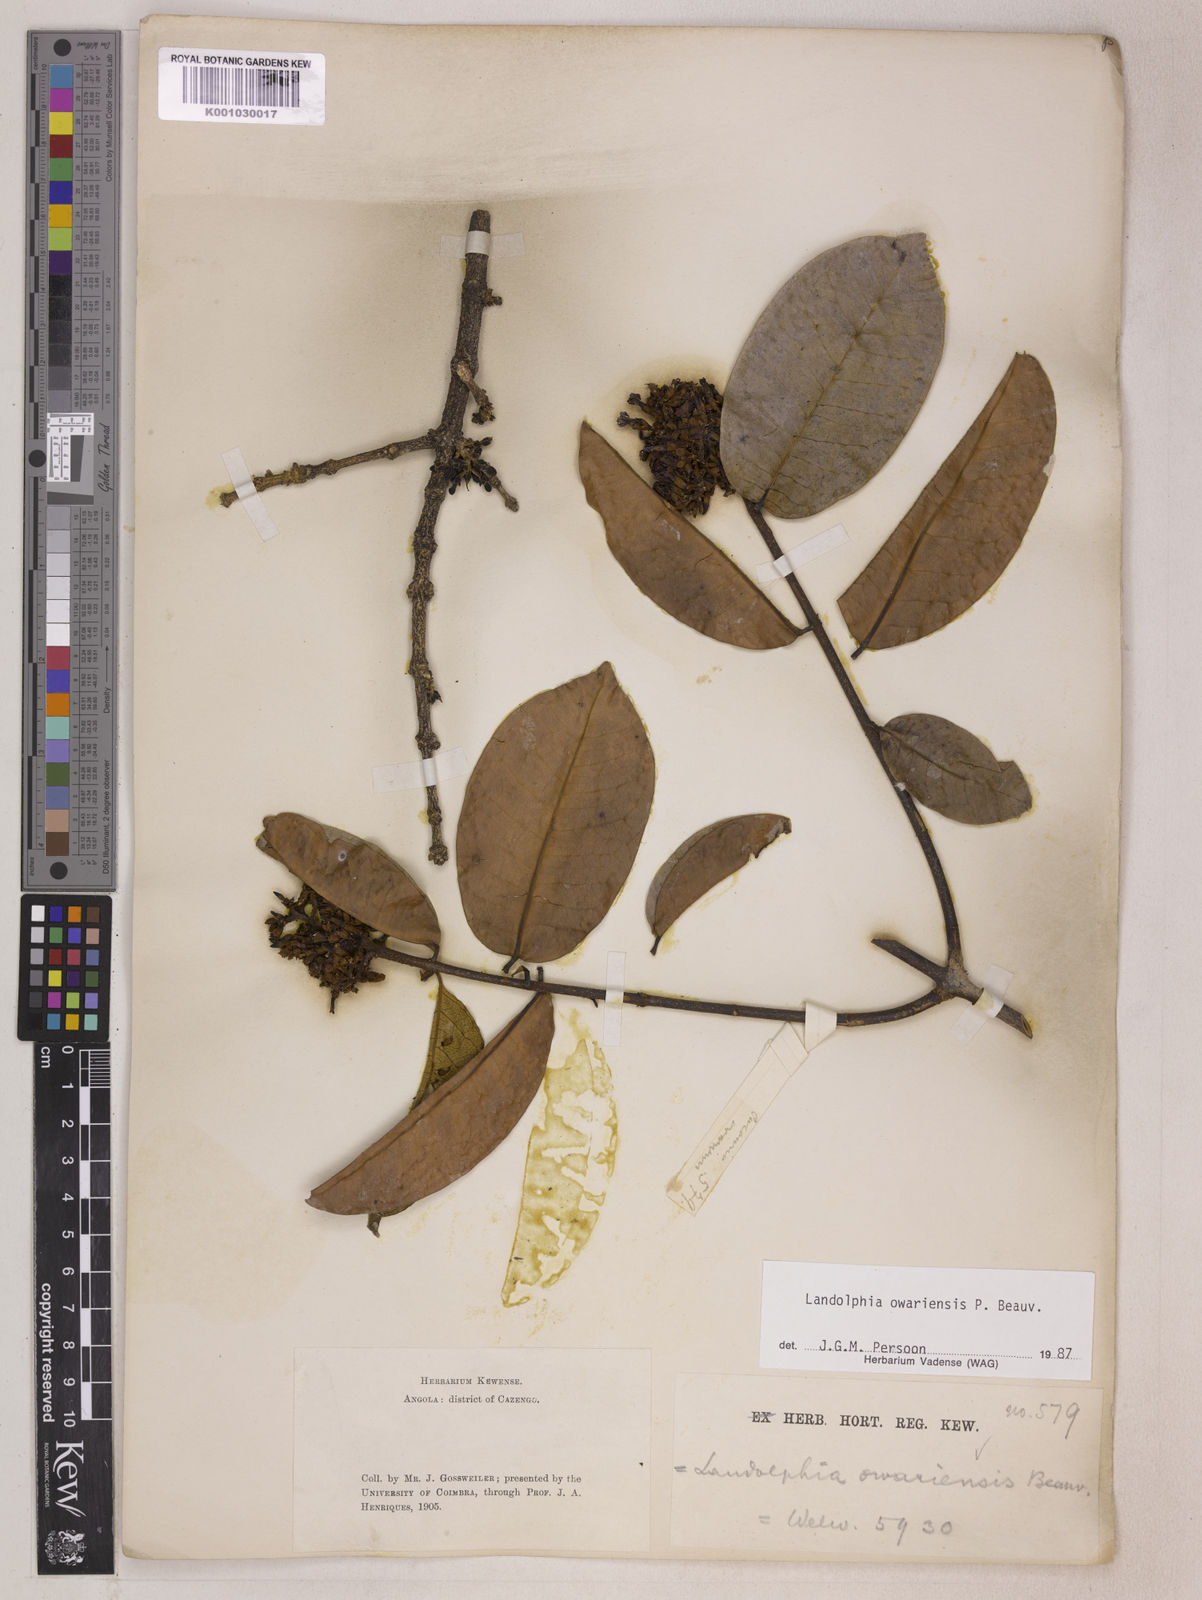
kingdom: Plantae
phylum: Tracheophyta
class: Magnoliopsida
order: Gentianales
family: Apocynaceae
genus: Landolphia
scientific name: Landolphia owariensis
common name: White-ball-rubber
